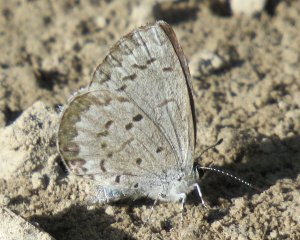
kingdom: Animalia
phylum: Arthropoda
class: Insecta
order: Lepidoptera
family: Lycaenidae
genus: Celastrina
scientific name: Celastrina lucia
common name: Northern Spring Azure
